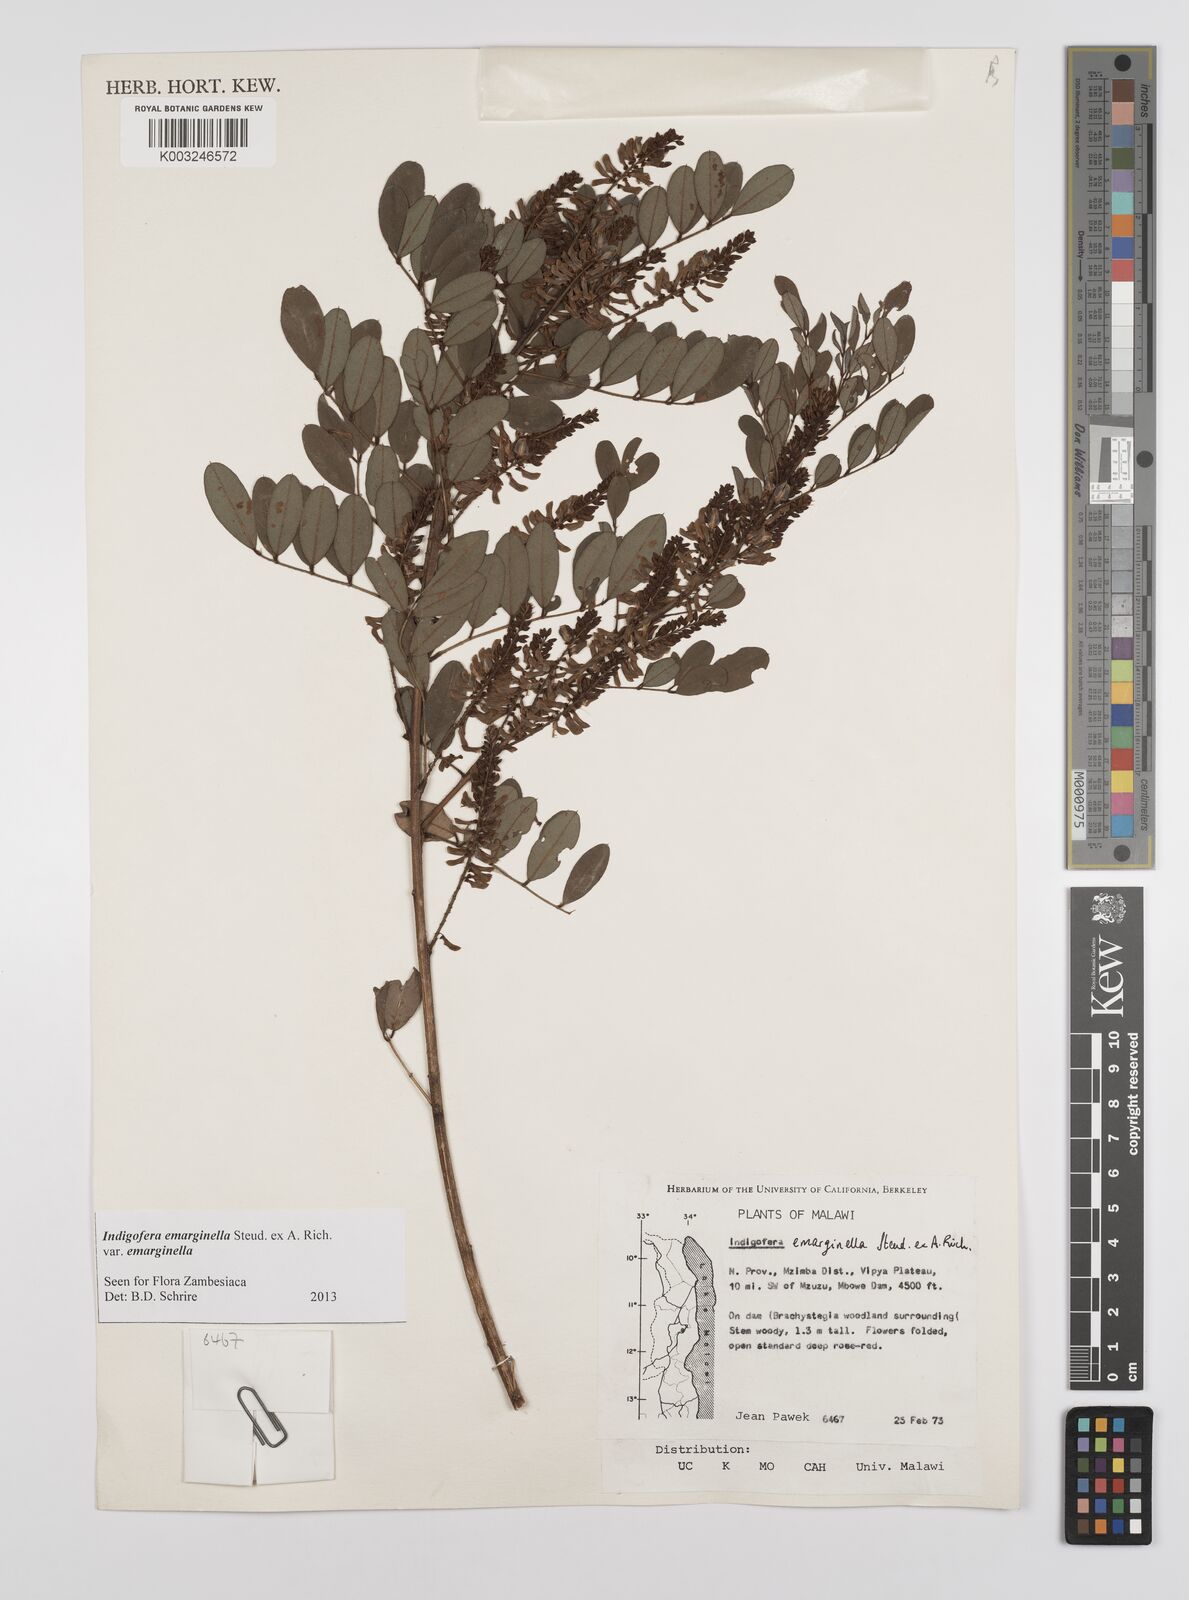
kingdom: Plantae
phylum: Tracheophyta
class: Magnoliopsida
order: Fabales
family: Fabaceae
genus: Indigofera
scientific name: Indigofera emarginella
